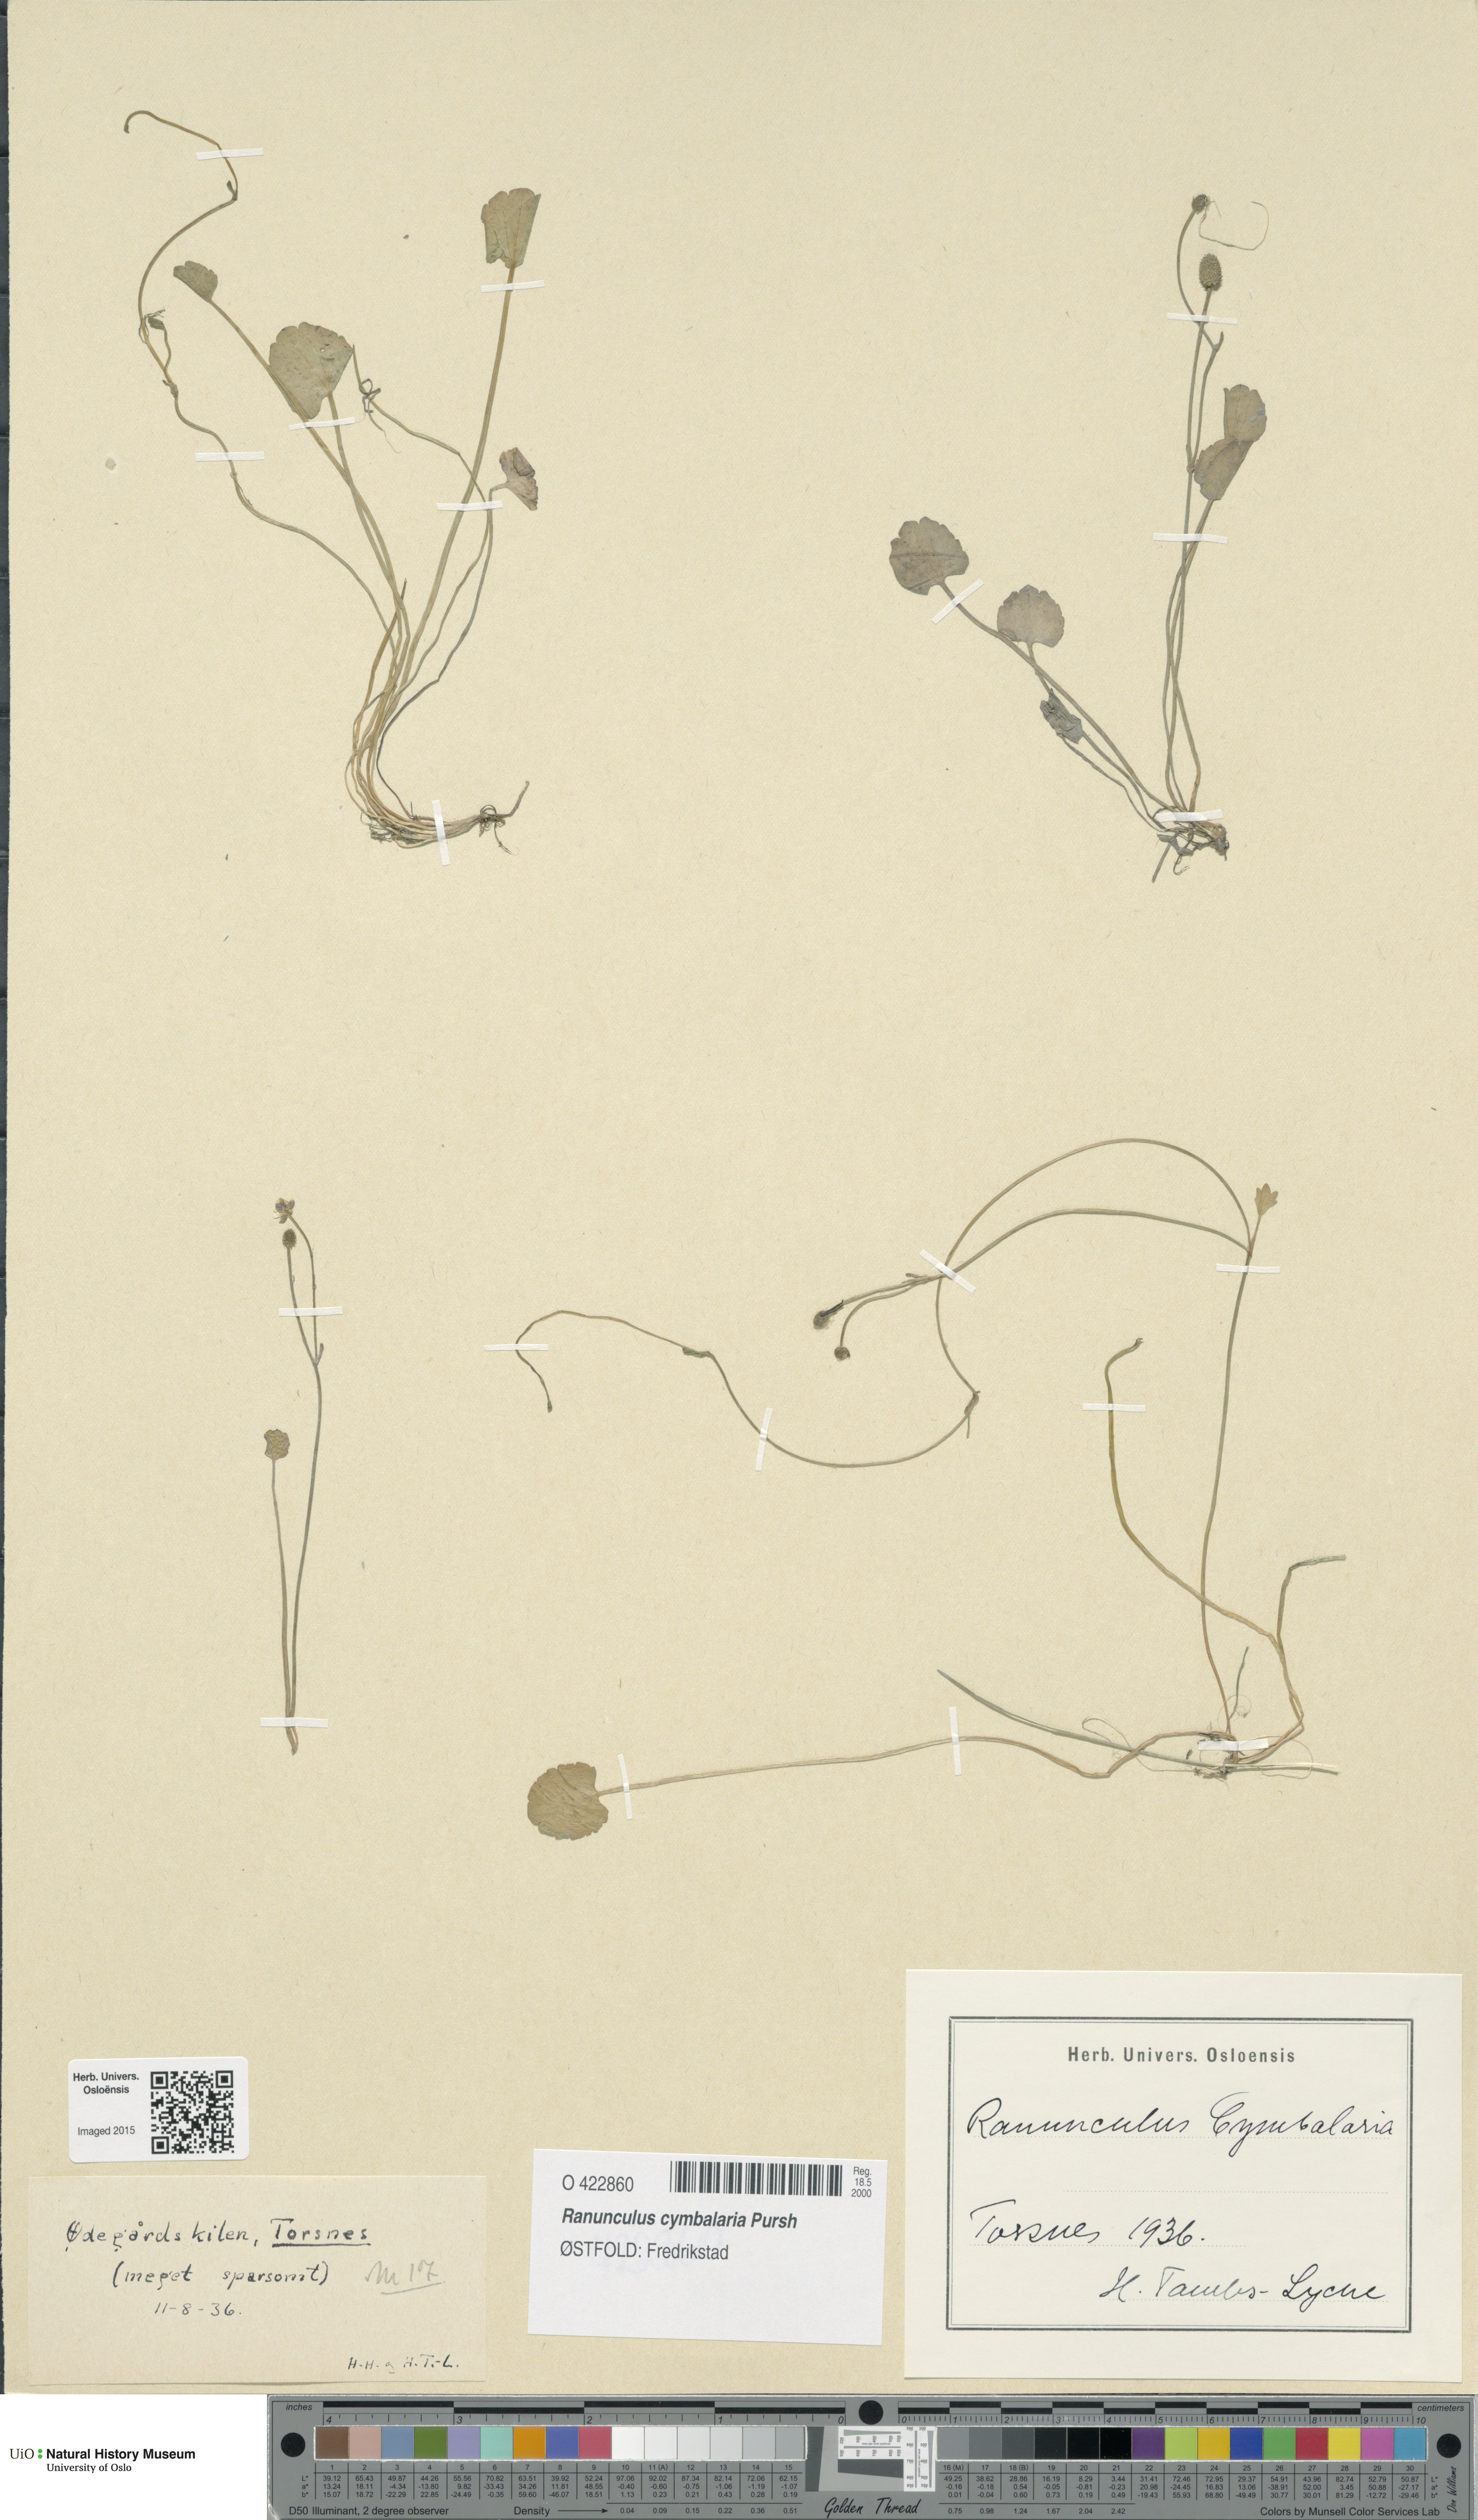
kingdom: Plantae
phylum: Tracheophyta
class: Magnoliopsida
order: Ranunculales
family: Ranunculaceae
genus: Halerpestes
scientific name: Halerpestes cymbalaria
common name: Seaside crowfoot
